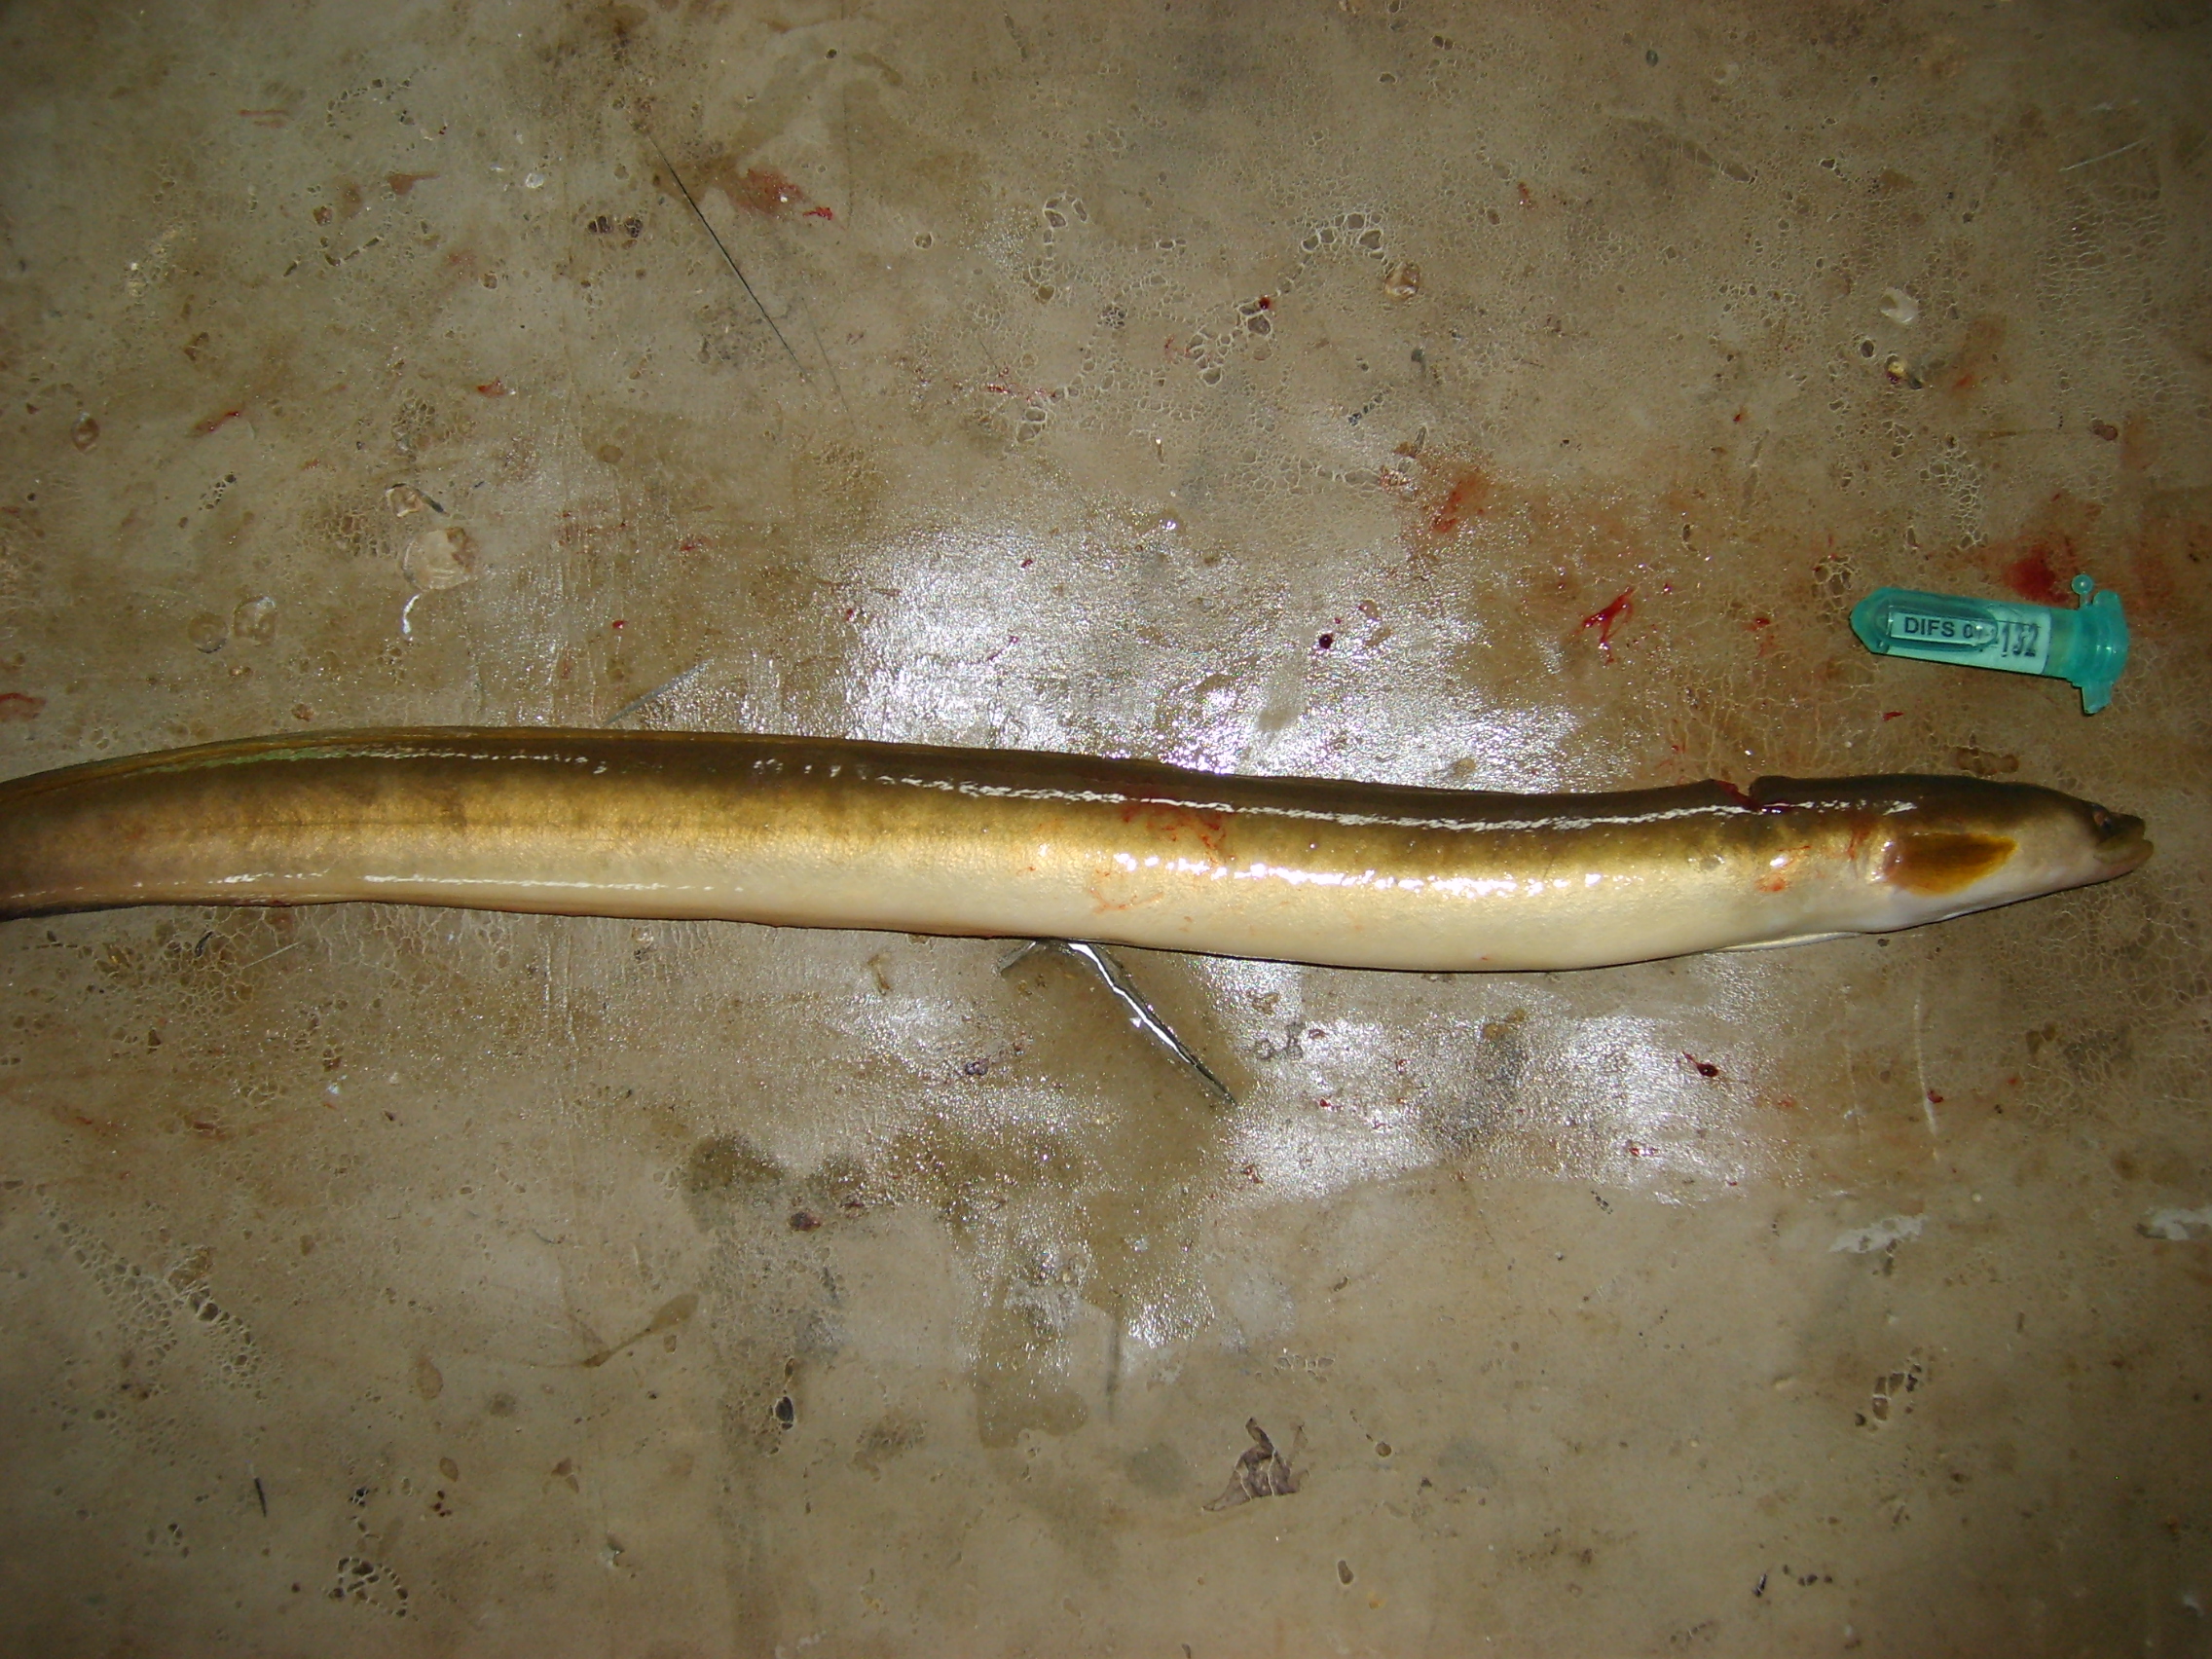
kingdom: Animalia
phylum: Chordata
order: Anguilliformes
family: Anguillidae
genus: Anguilla
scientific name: Anguilla mossambica
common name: African longfin eel
